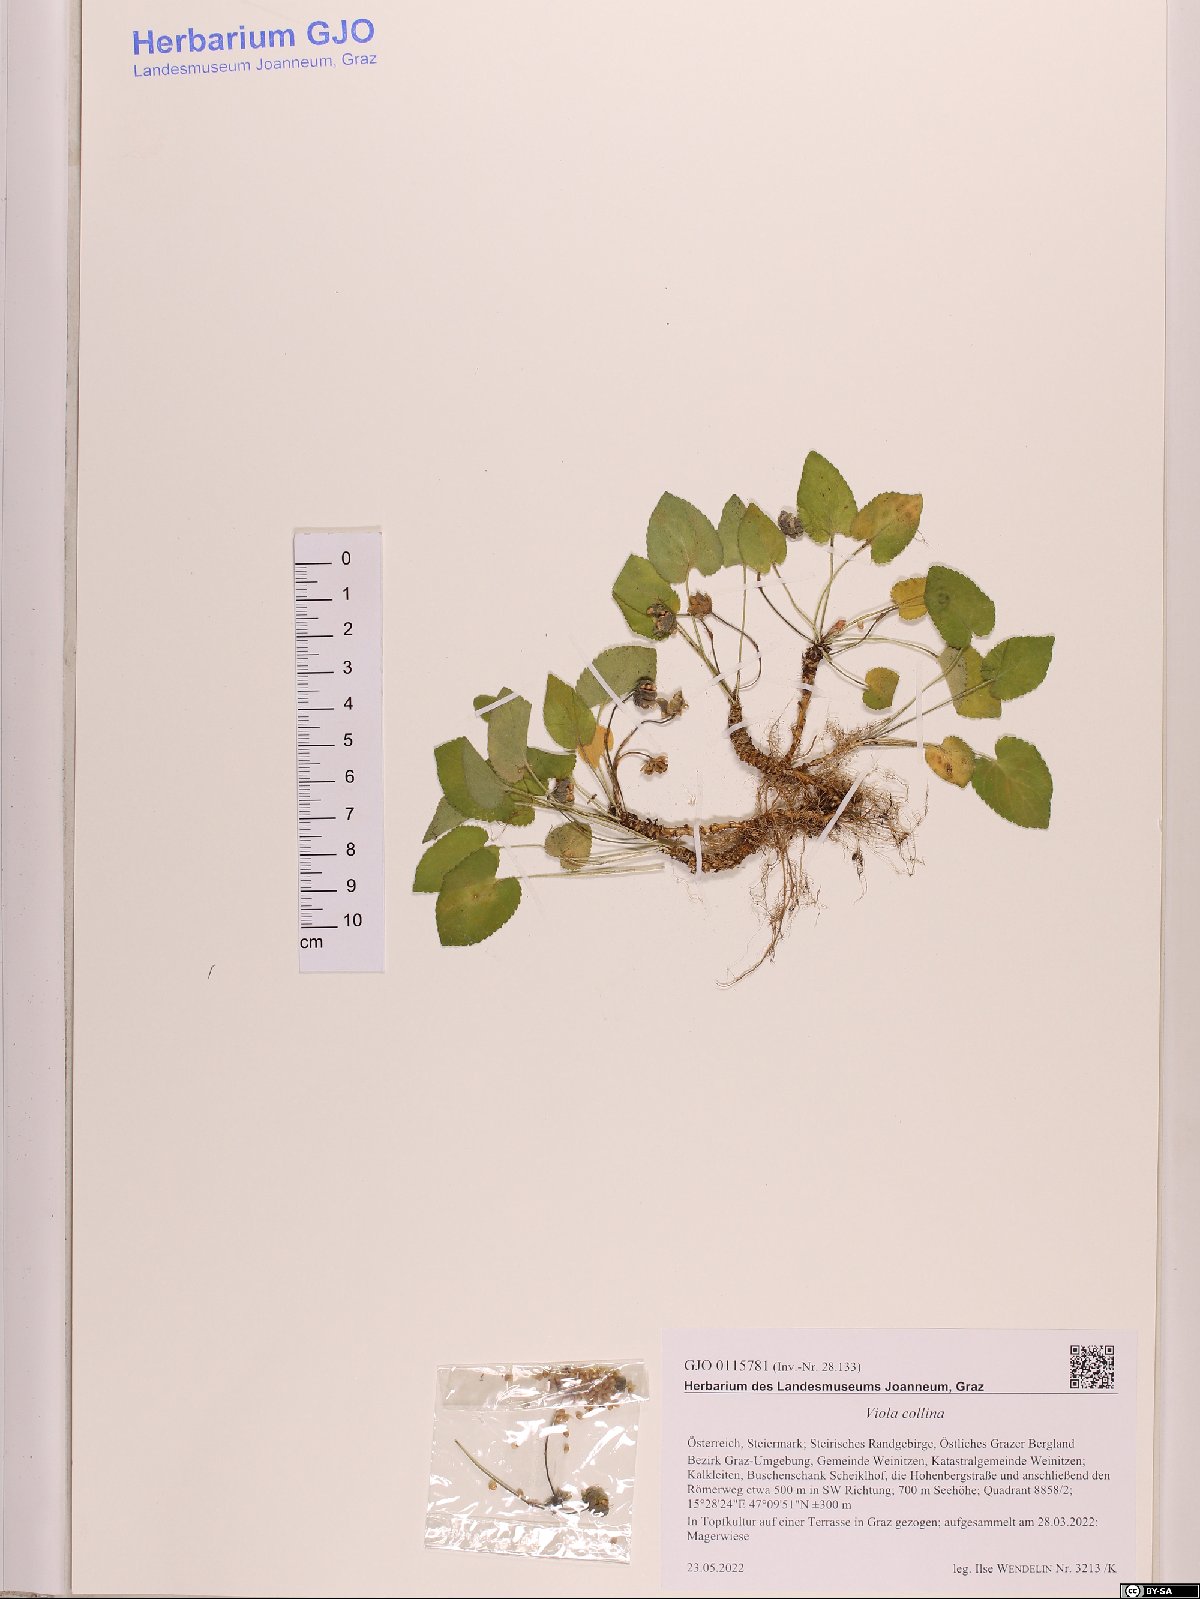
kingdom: Plantae
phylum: Tracheophyta
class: Magnoliopsida
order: Malpighiales
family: Violaceae
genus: Viola
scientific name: Viola collina
